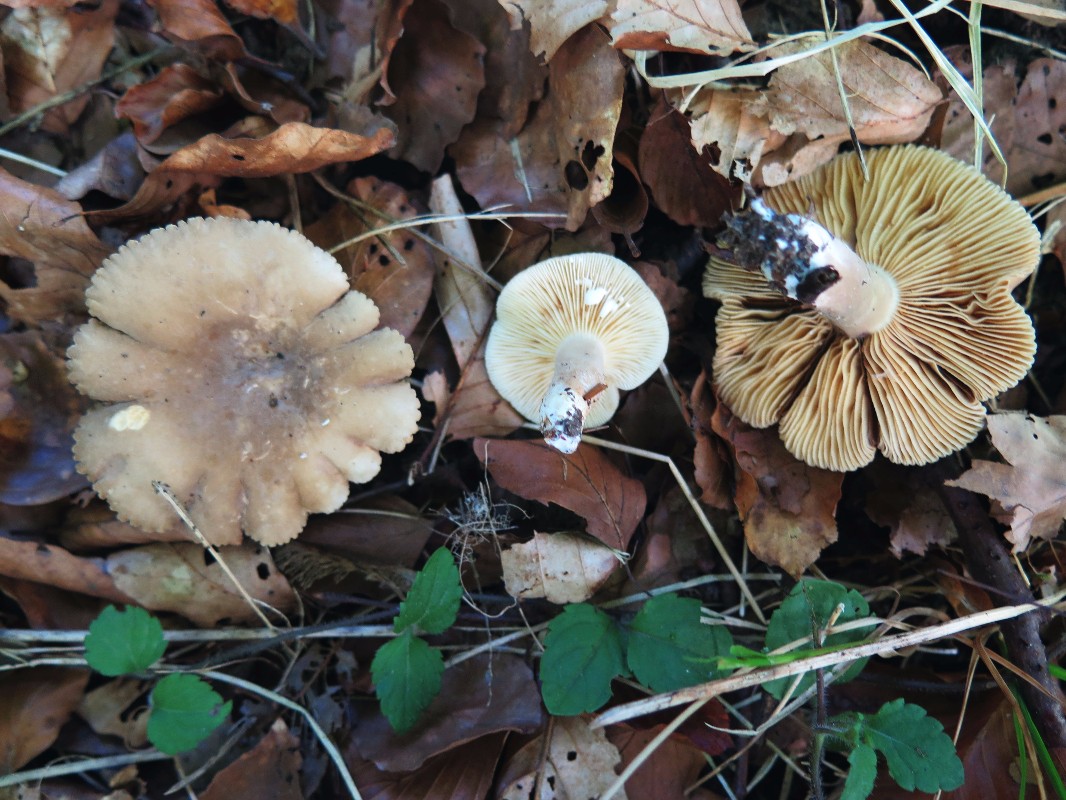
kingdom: Fungi
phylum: Basidiomycota
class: Agaricomycetes
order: Russulales
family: Russulaceae
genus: Lactarius
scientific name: Lactarius ruginosus
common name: gråbrun mælkehat
